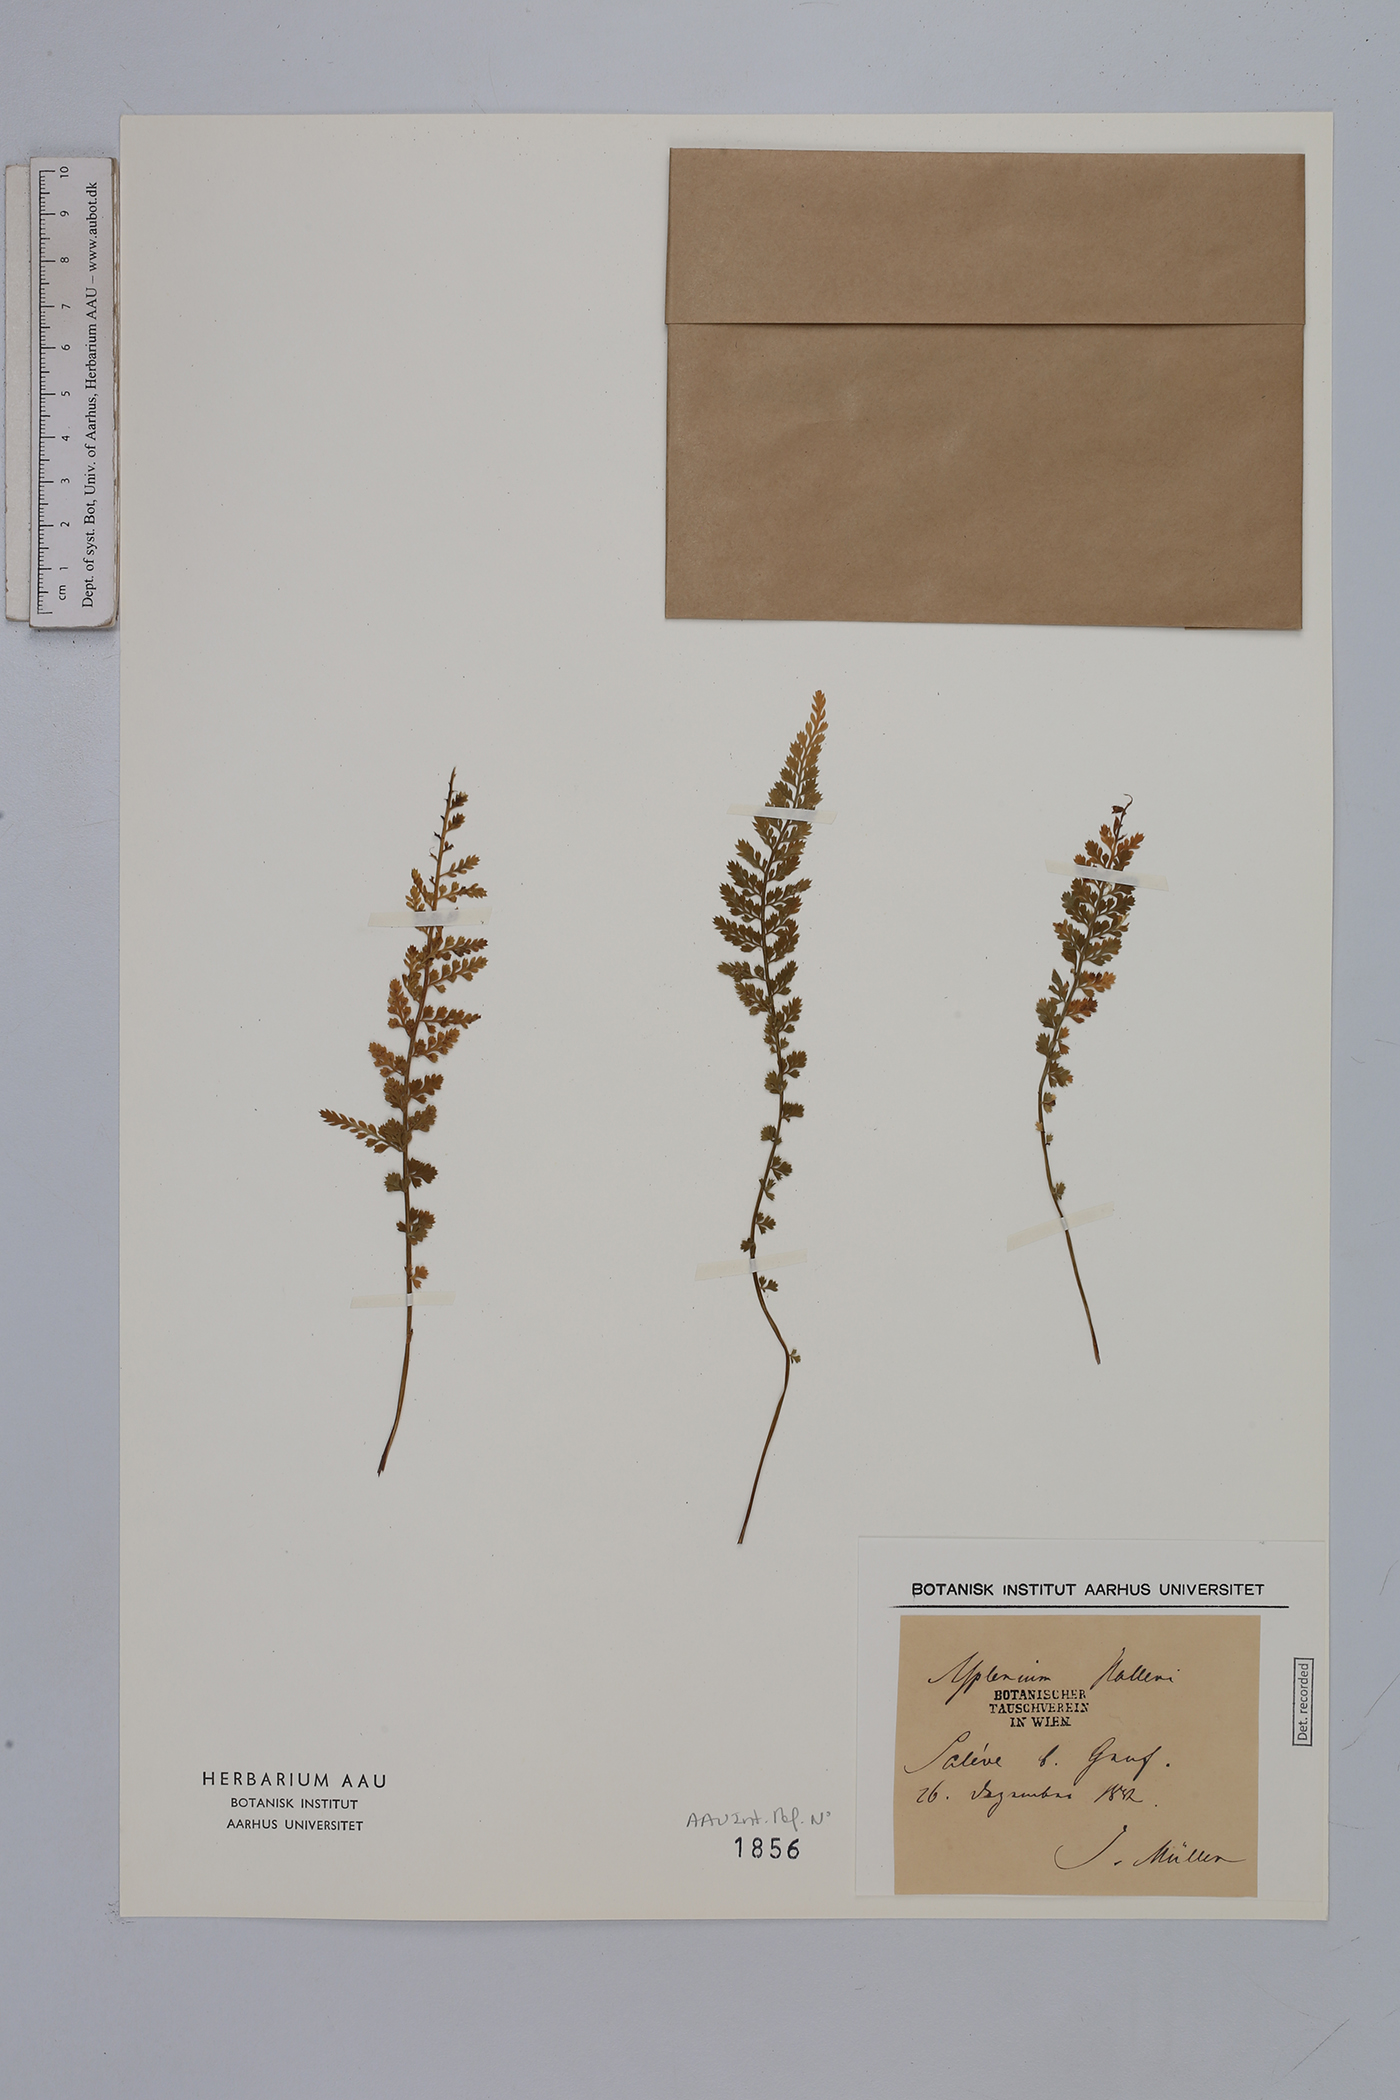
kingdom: Plantae
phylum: Tracheophyta
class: Polypodiopsida
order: Polypodiales
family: Aspleniaceae
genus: Asplenium
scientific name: Asplenium fontanum
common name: Fountain spleenwort
